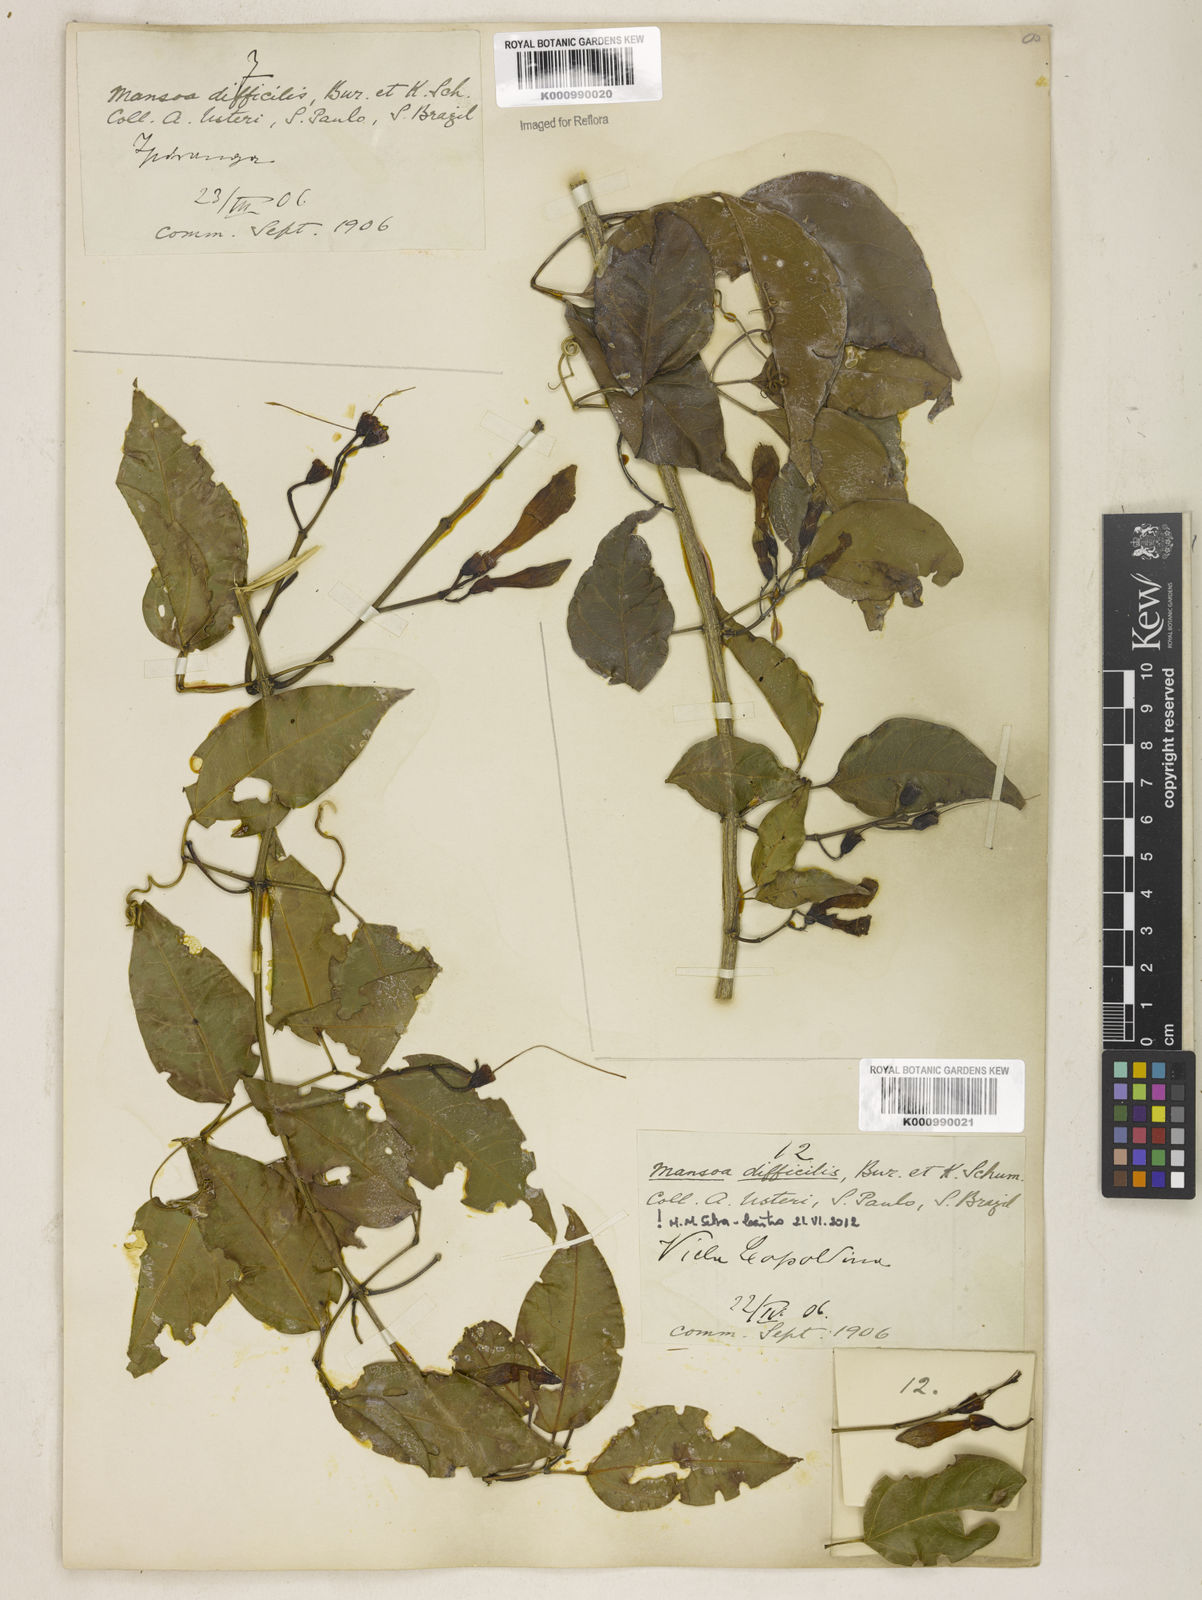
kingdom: Plantae
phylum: Tracheophyta
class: Magnoliopsida
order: Lamiales
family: Bignoniaceae
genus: Mansoa
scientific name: Mansoa difficilis
